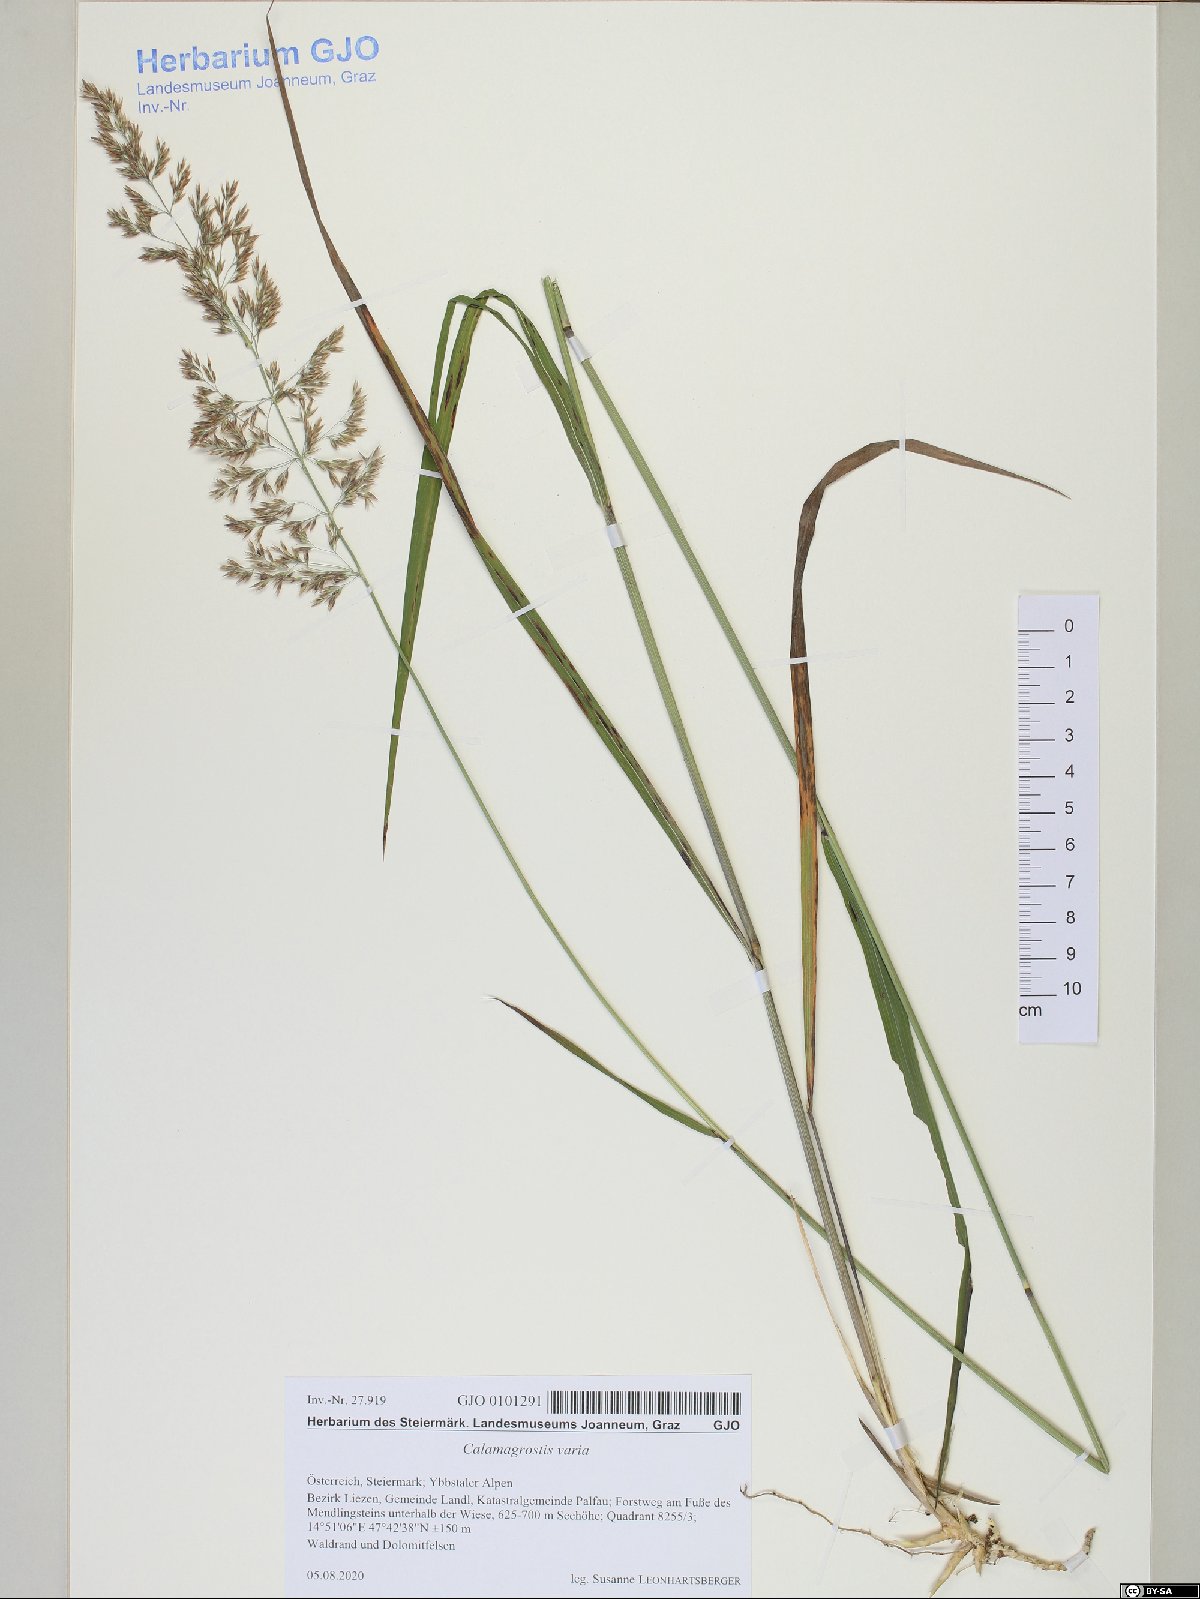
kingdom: Plantae
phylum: Tracheophyta
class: Liliopsida
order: Poales
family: Poaceae
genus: Calamagrostis
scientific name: Calamagrostis varia
